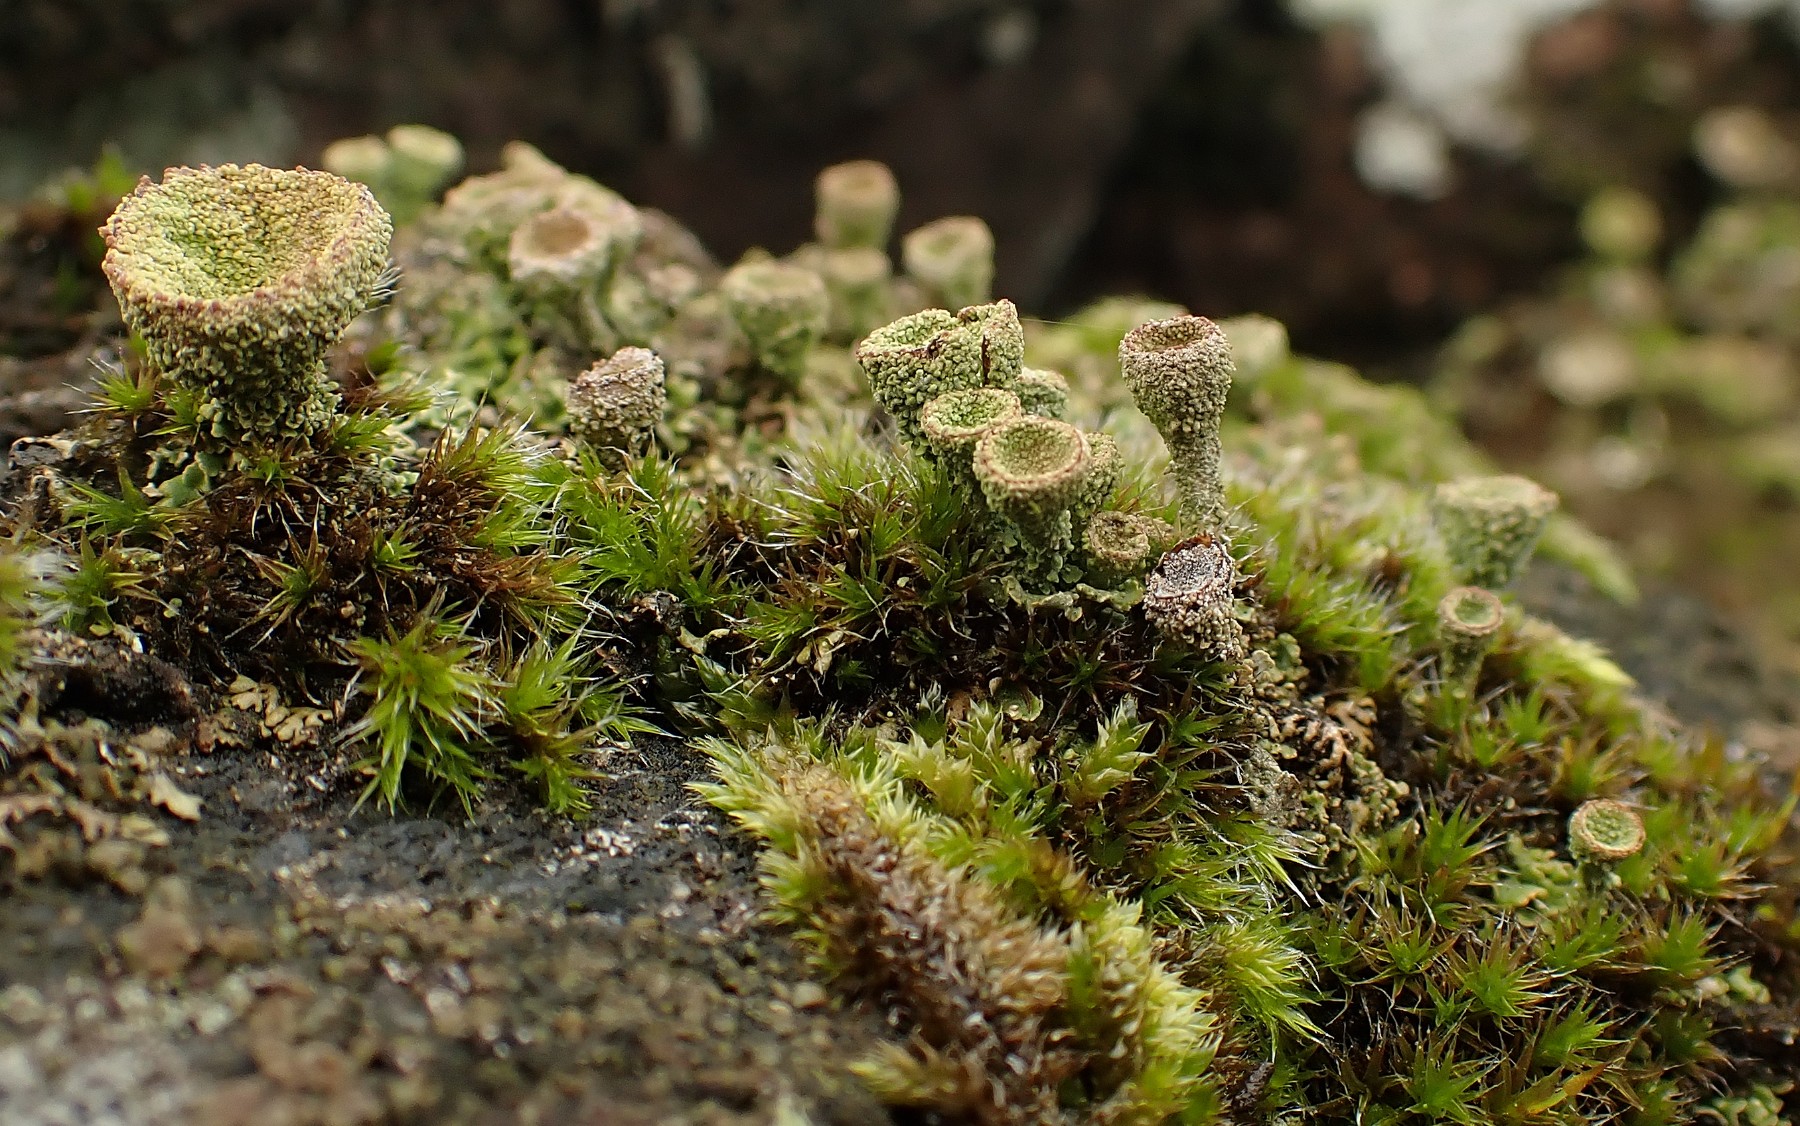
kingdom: Fungi
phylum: Ascomycota
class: Lecanoromycetes
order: Lecanorales
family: Cladoniaceae
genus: Cladonia
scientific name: Cladonia
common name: brungrøn bægerlav
